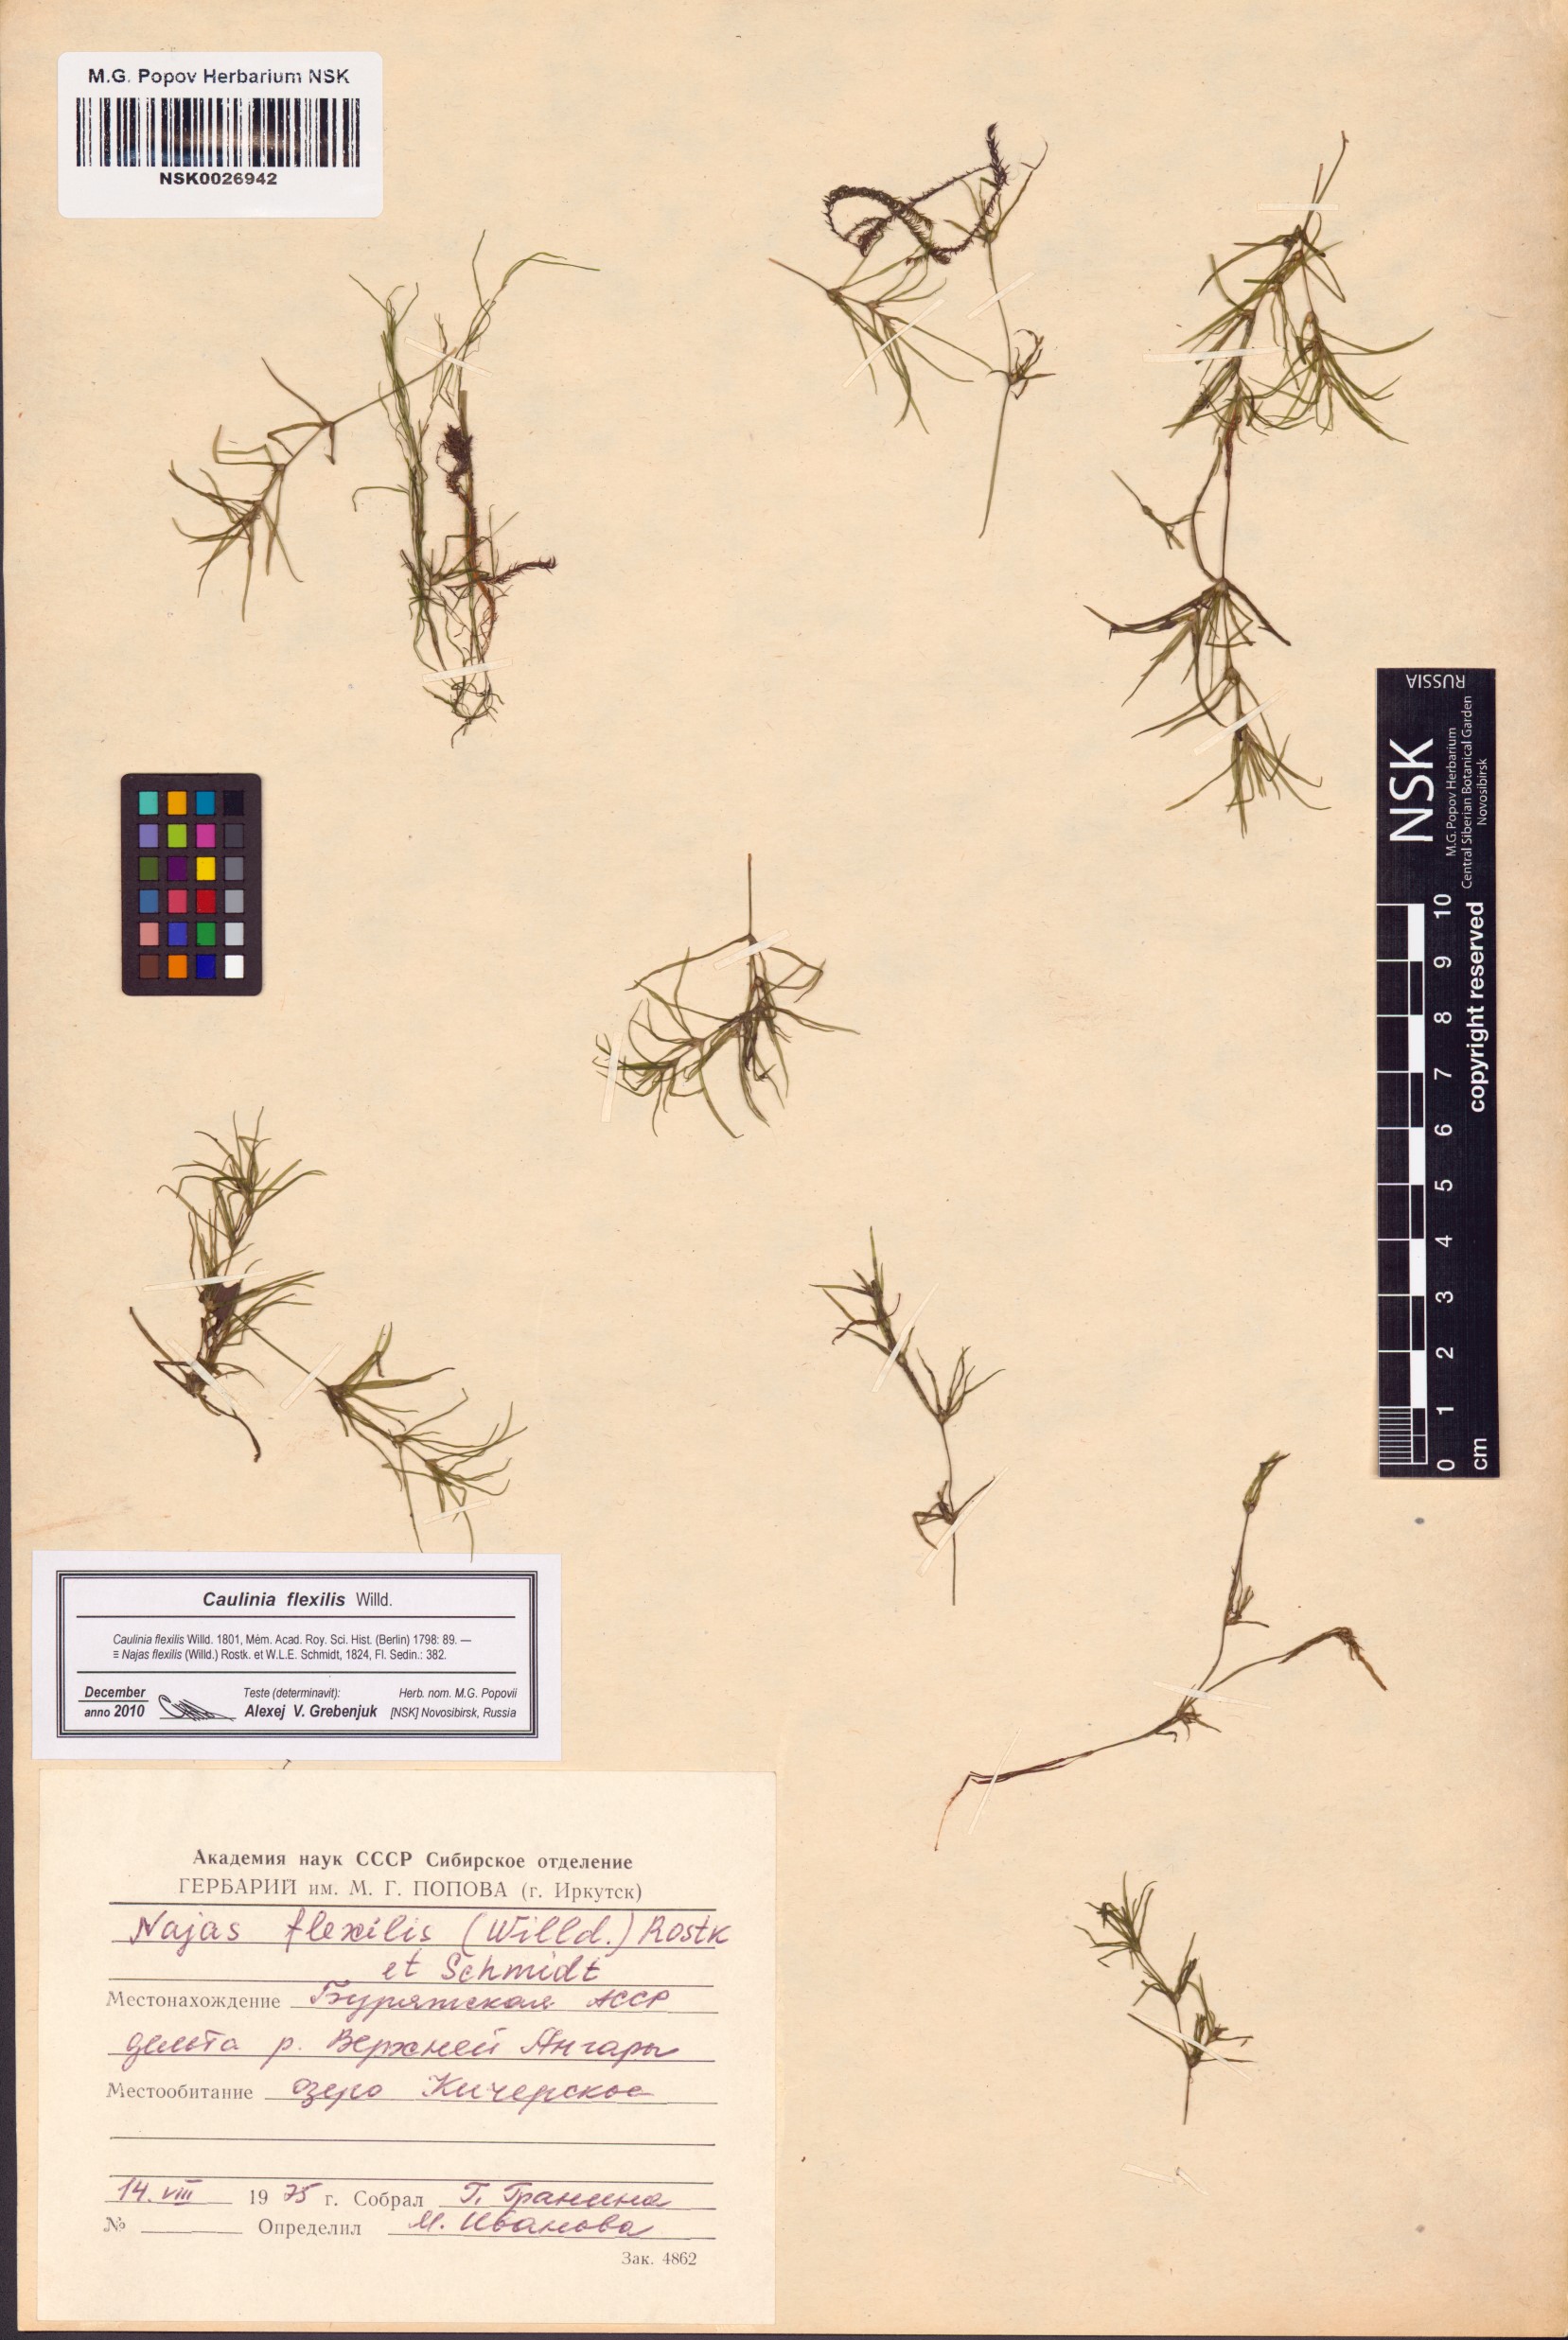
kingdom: Plantae
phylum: Tracheophyta
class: Liliopsida
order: Alismatales
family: Hydrocharitaceae
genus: Najas
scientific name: Najas flexilis
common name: Slender naiad
